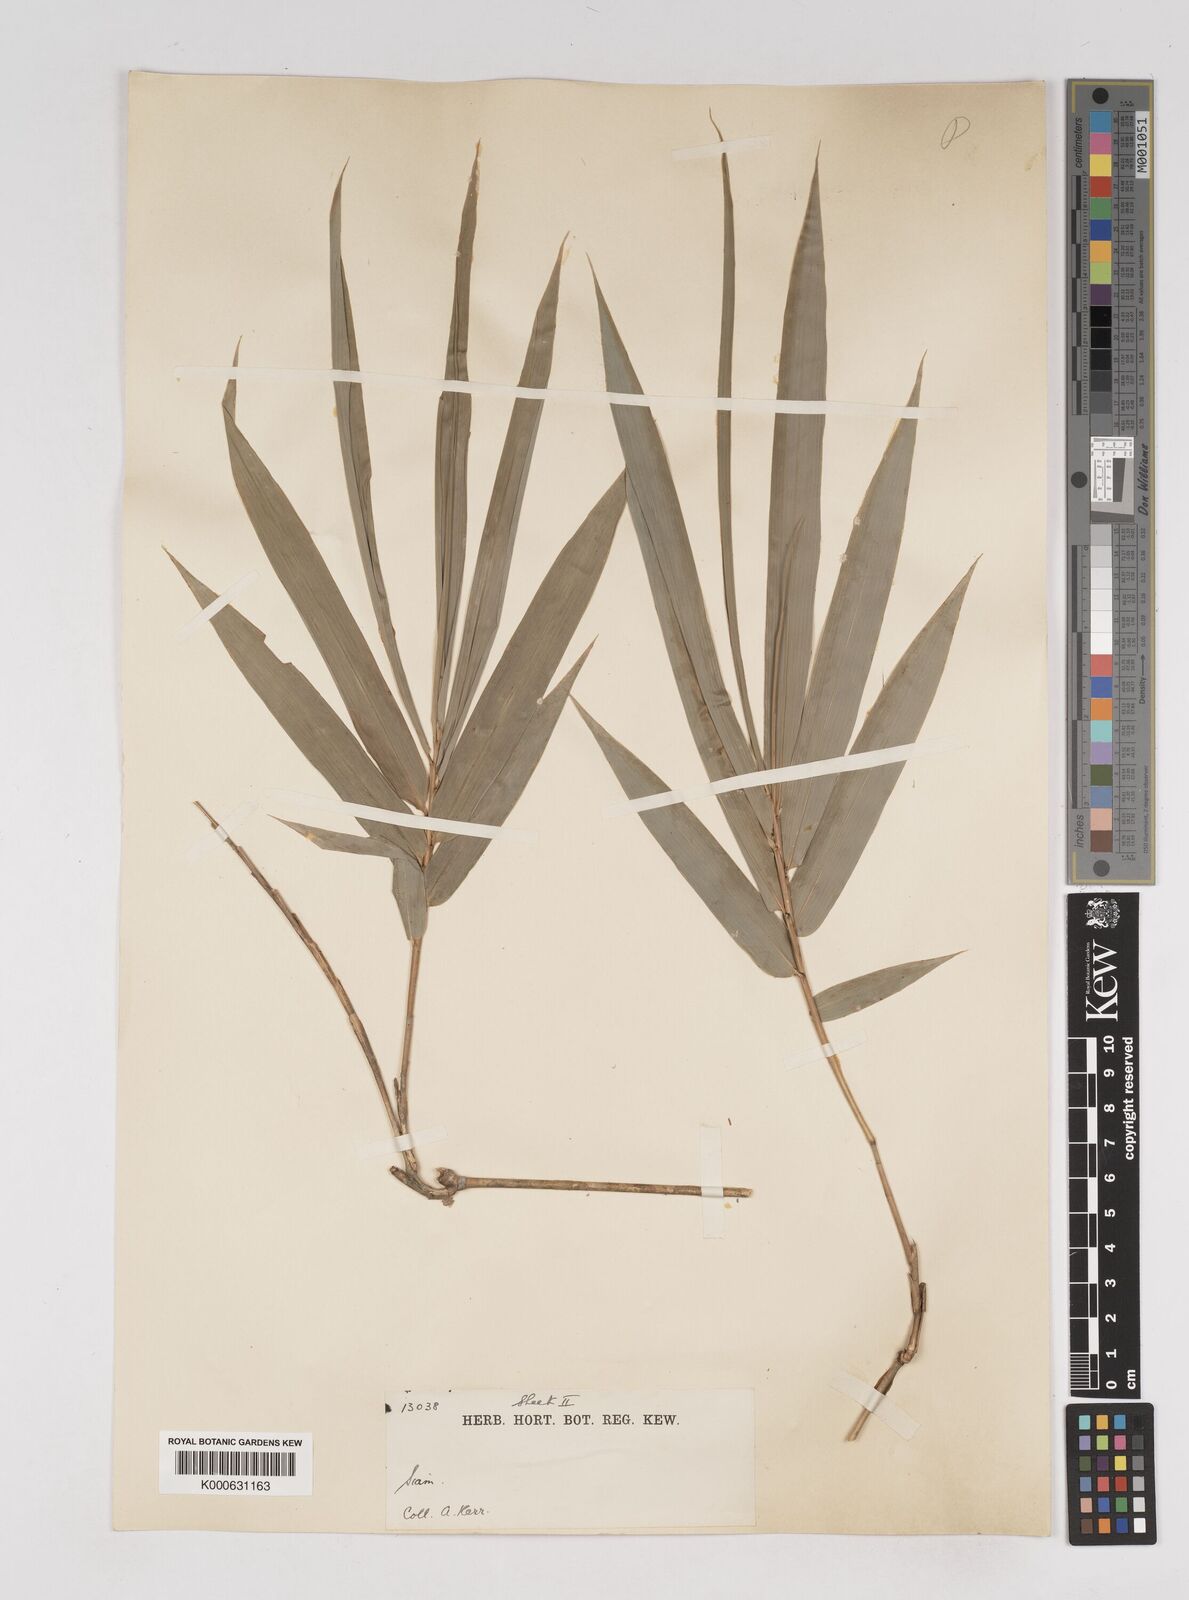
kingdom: Plantae
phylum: Tracheophyta
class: Liliopsida
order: Poales
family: Poaceae
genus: Gigantochloa
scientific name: Gigantochloa
